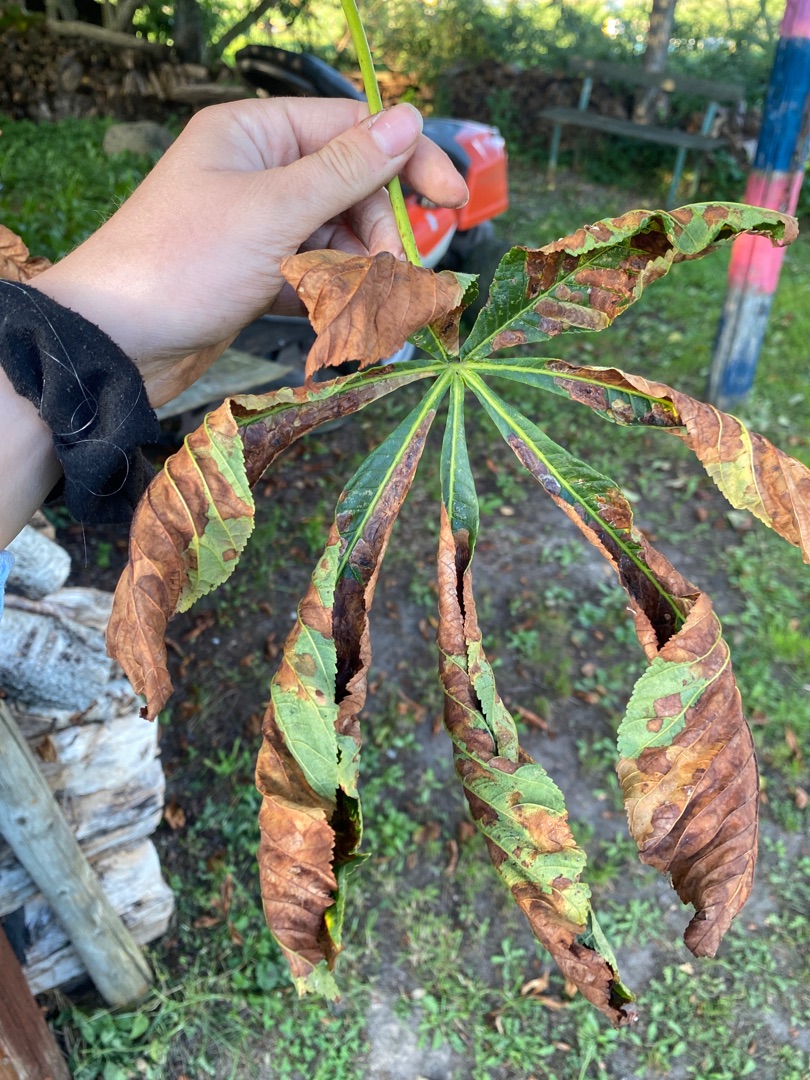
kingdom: Plantae
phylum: Tracheophyta
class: Magnoliopsida
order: Saxifragales
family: Saxifragaceae
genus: Rodgersia
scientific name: Rodgersia aesculifolia
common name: Kastanjebladet bronzeblad
